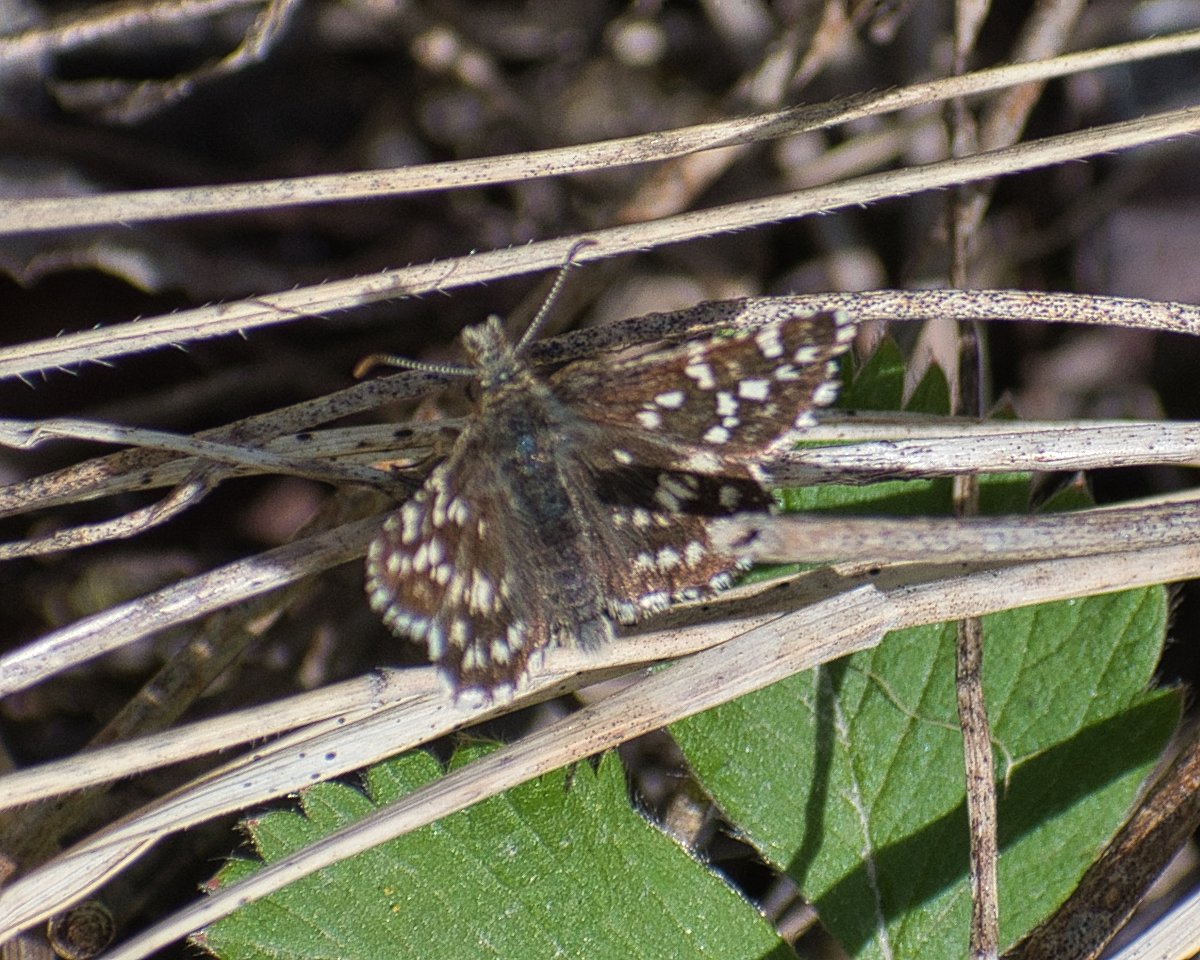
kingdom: Animalia
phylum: Arthropoda
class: Insecta
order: Lepidoptera
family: Hesperiidae
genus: Pyrgus
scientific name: Pyrgus ruralis
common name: Two-banded Checkered-Skipper
